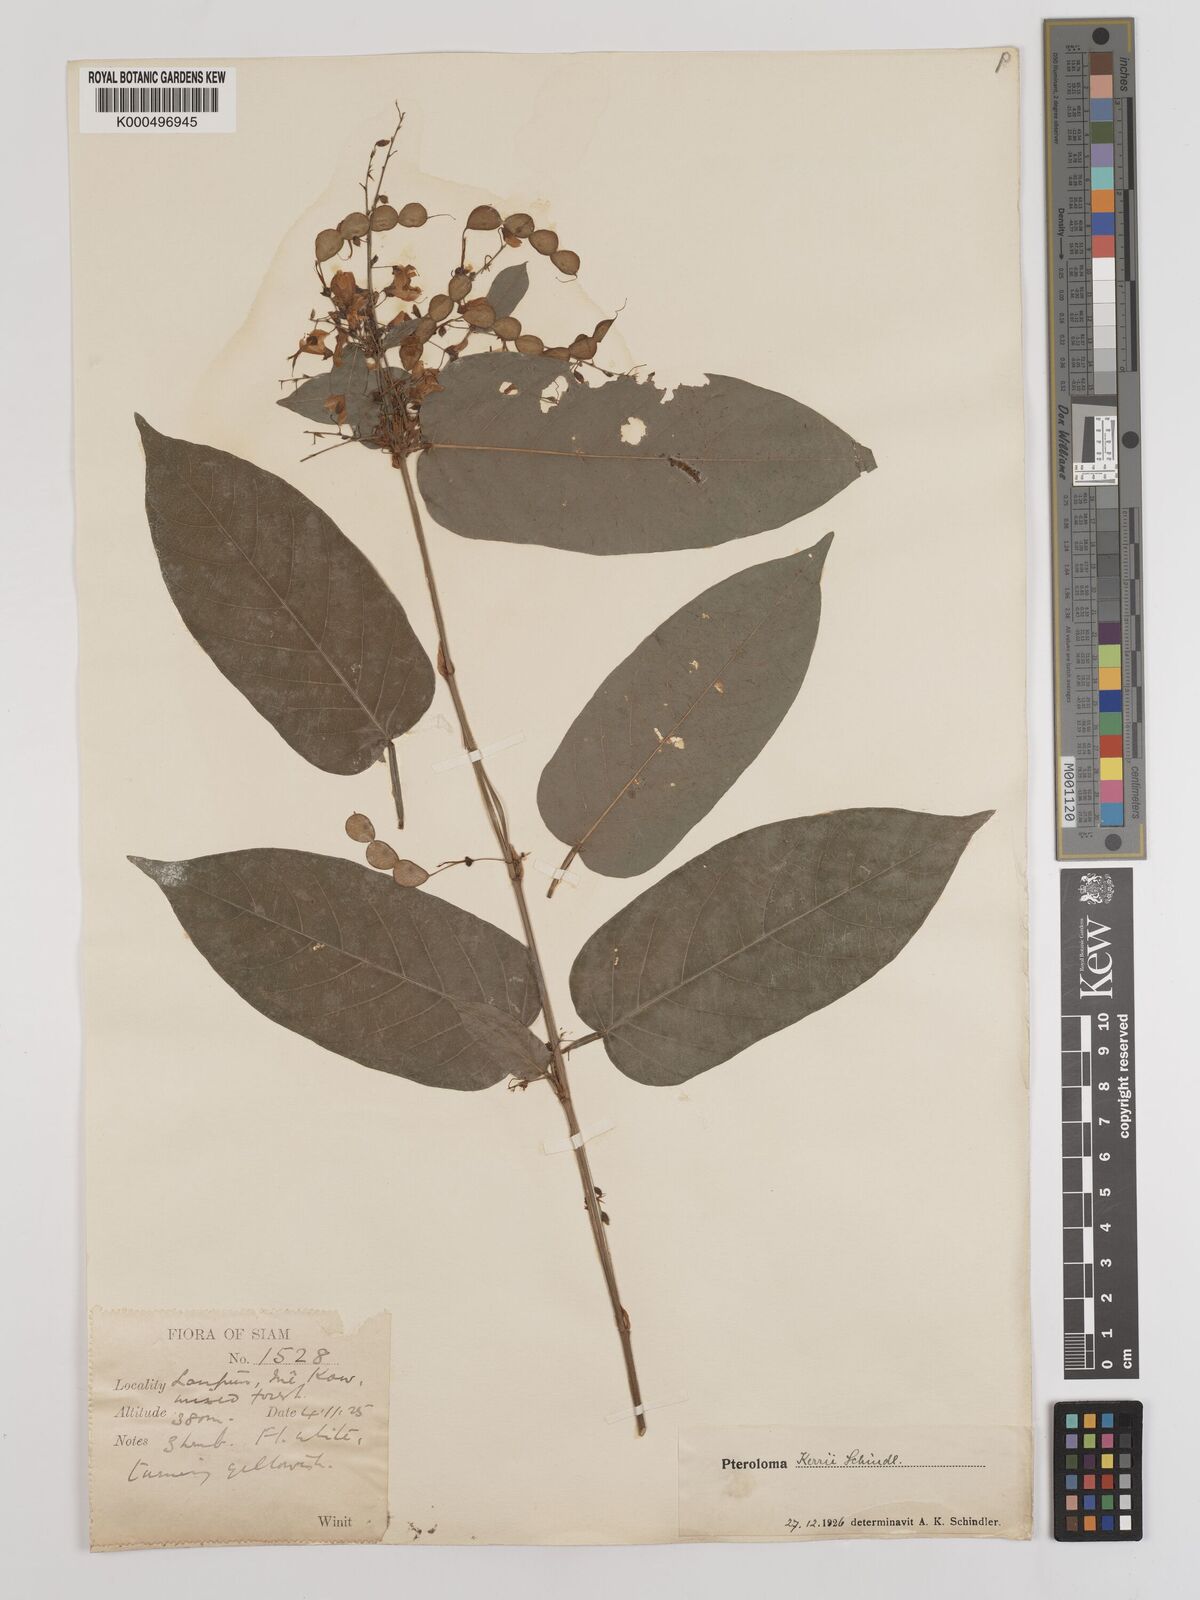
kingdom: Plantae
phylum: Tracheophyta
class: Magnoliopsida
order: Fabales
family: Fabaceae
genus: Tadehagi
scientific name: Tadehagi rodgeri
